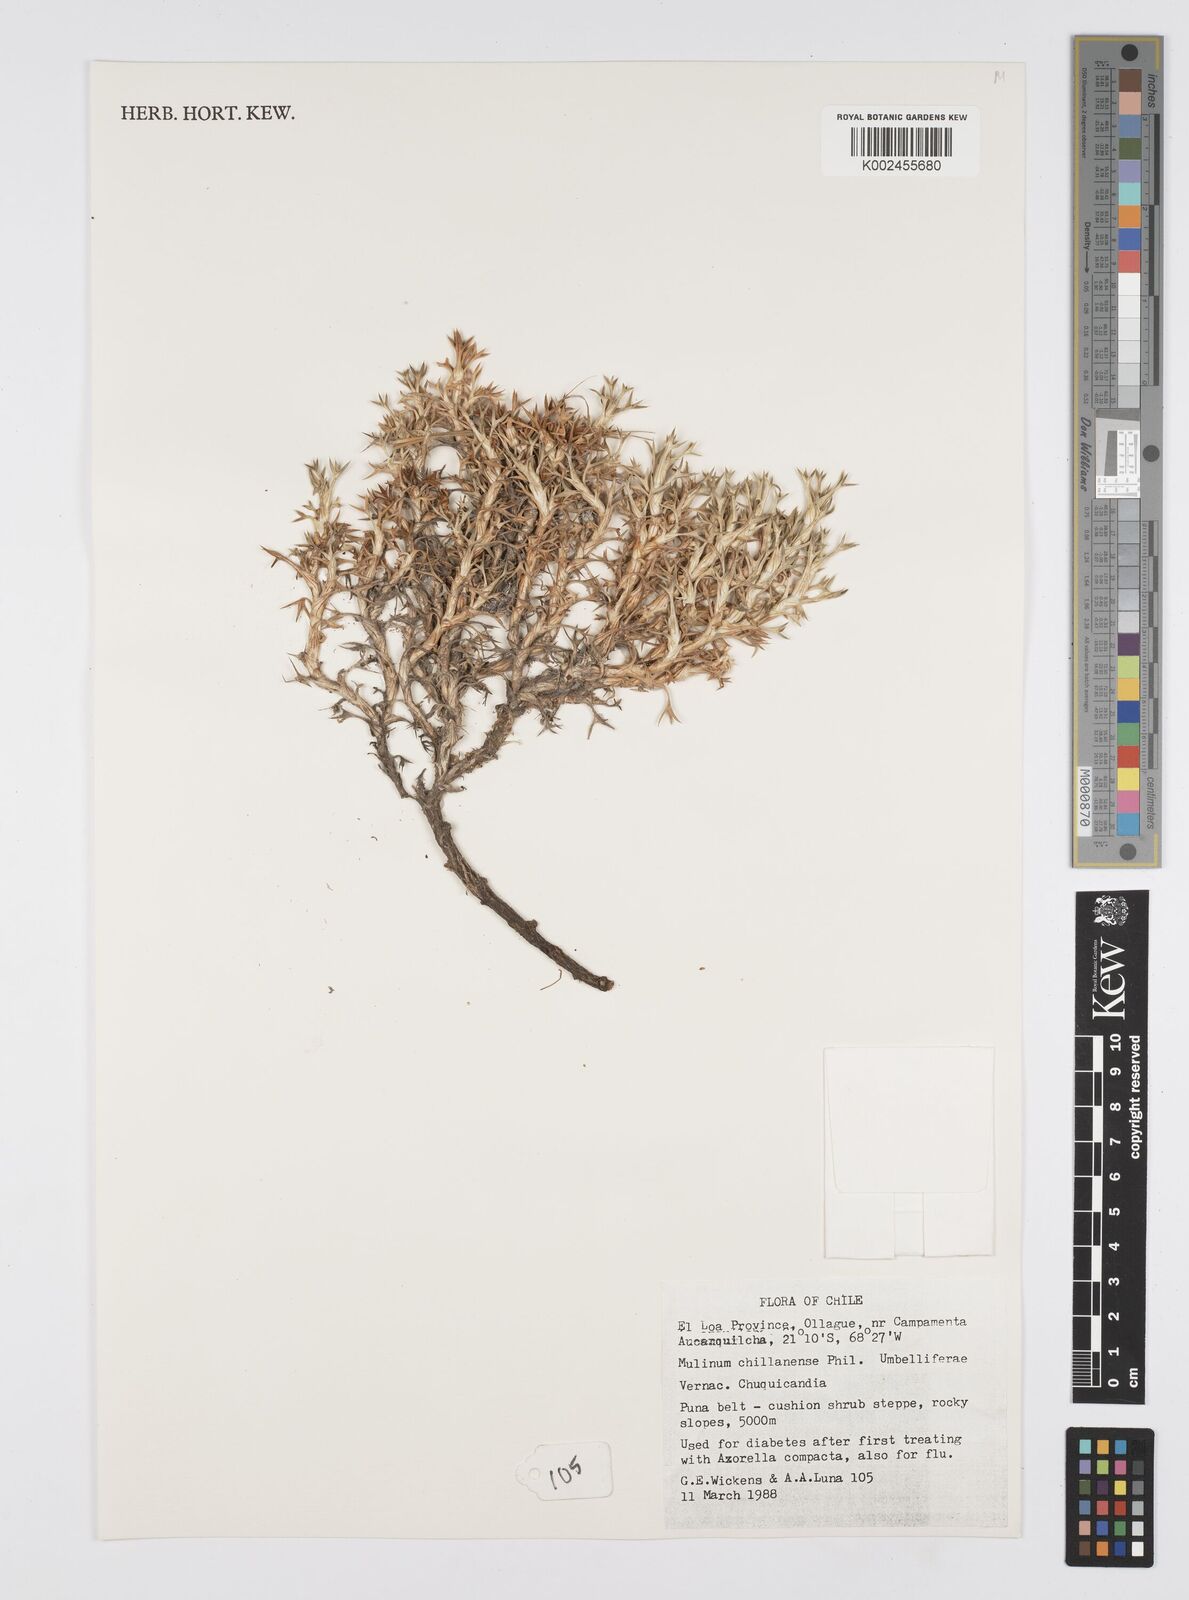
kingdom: Plantae
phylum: Tracheophyta
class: Magnoliopsida
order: Apiales
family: Apiaceae
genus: Azorella
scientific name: Azorella prolifera
